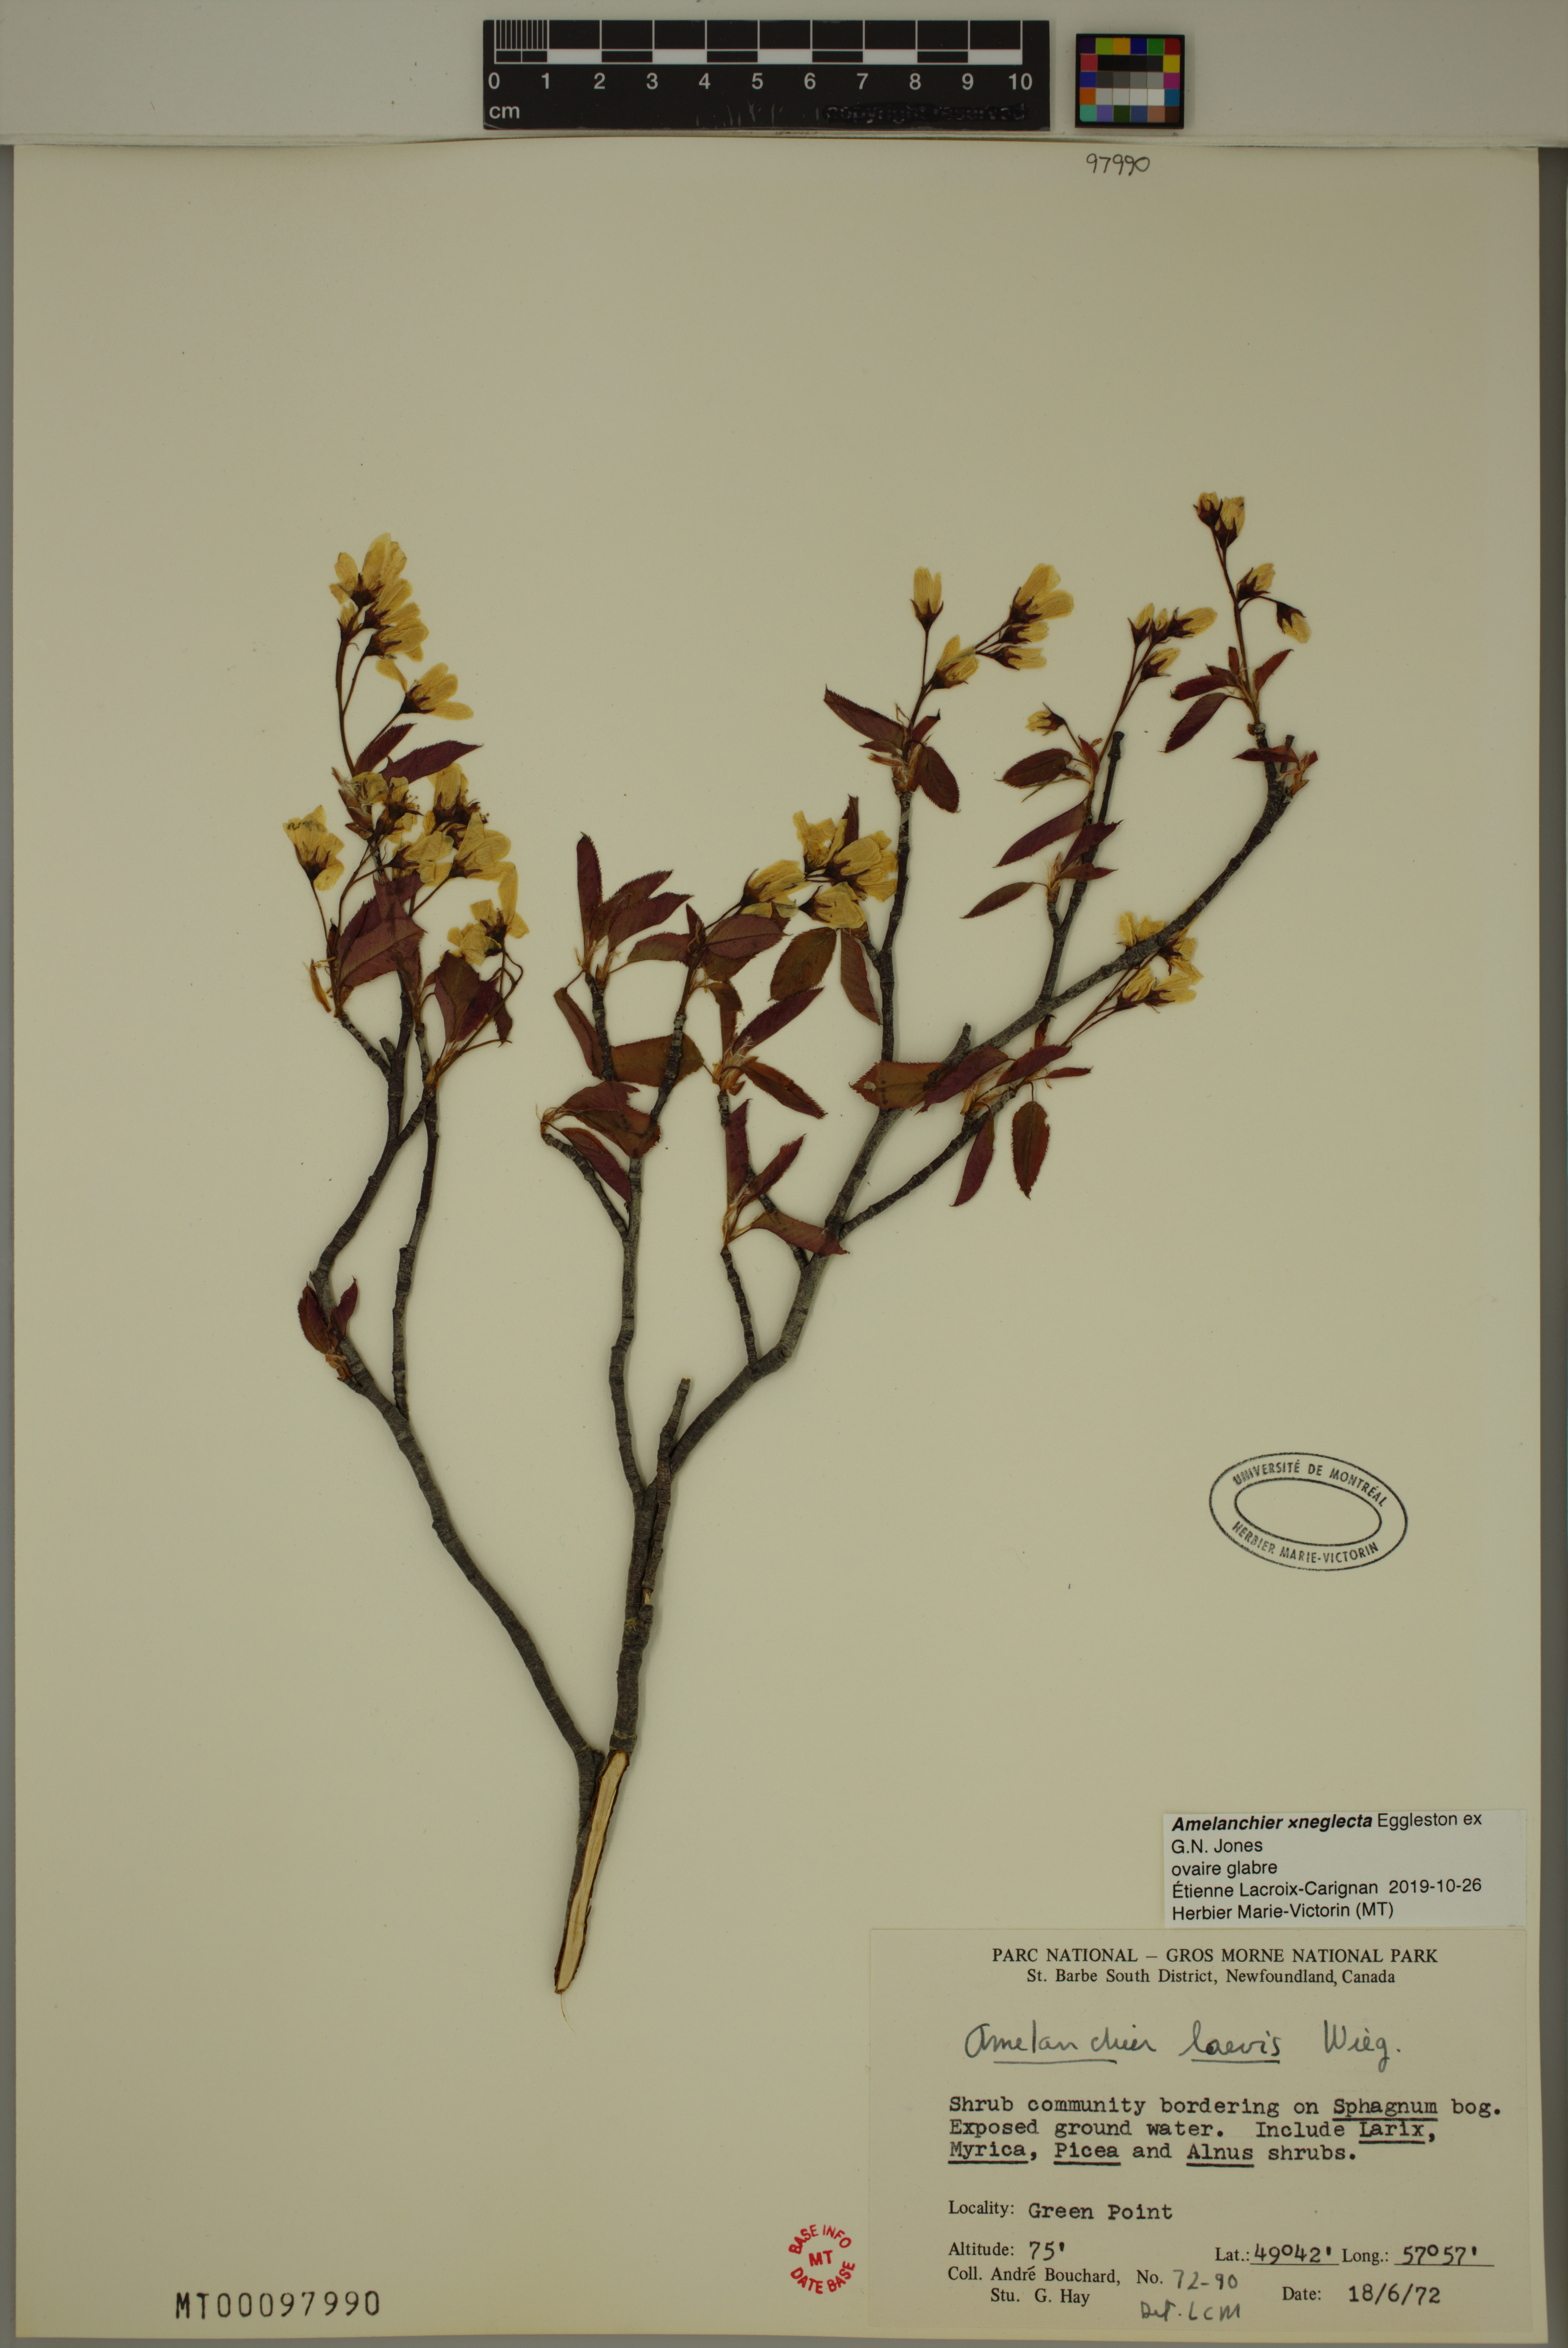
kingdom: Plantae
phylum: Tracheophyta
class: Magnoliopsida
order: Rosales
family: Rosaceae
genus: Amelanchier
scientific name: Amelanchier neglecta
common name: Overlooked serviceberry
